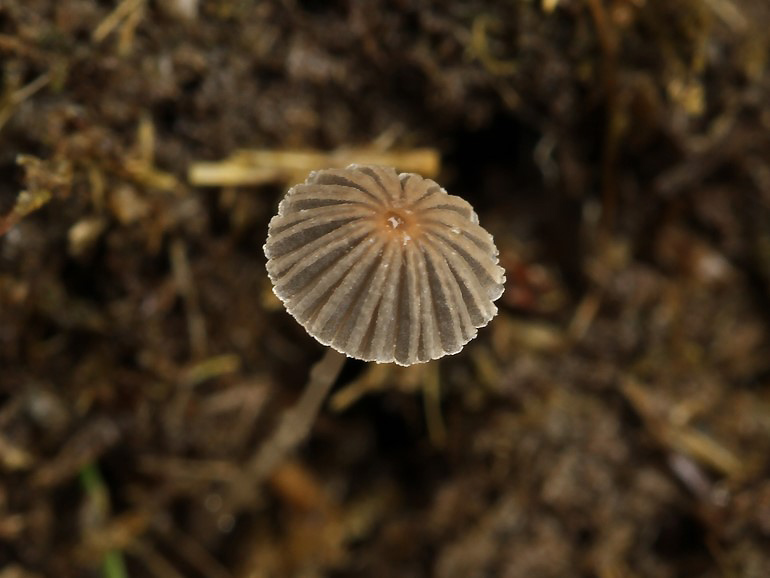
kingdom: Fungi
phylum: Basidiomycota
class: Agaricomycetes
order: Agaricales
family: Psathyrellaceae
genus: Parasola
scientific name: Parasola misera
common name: lillebitte hjulhat
